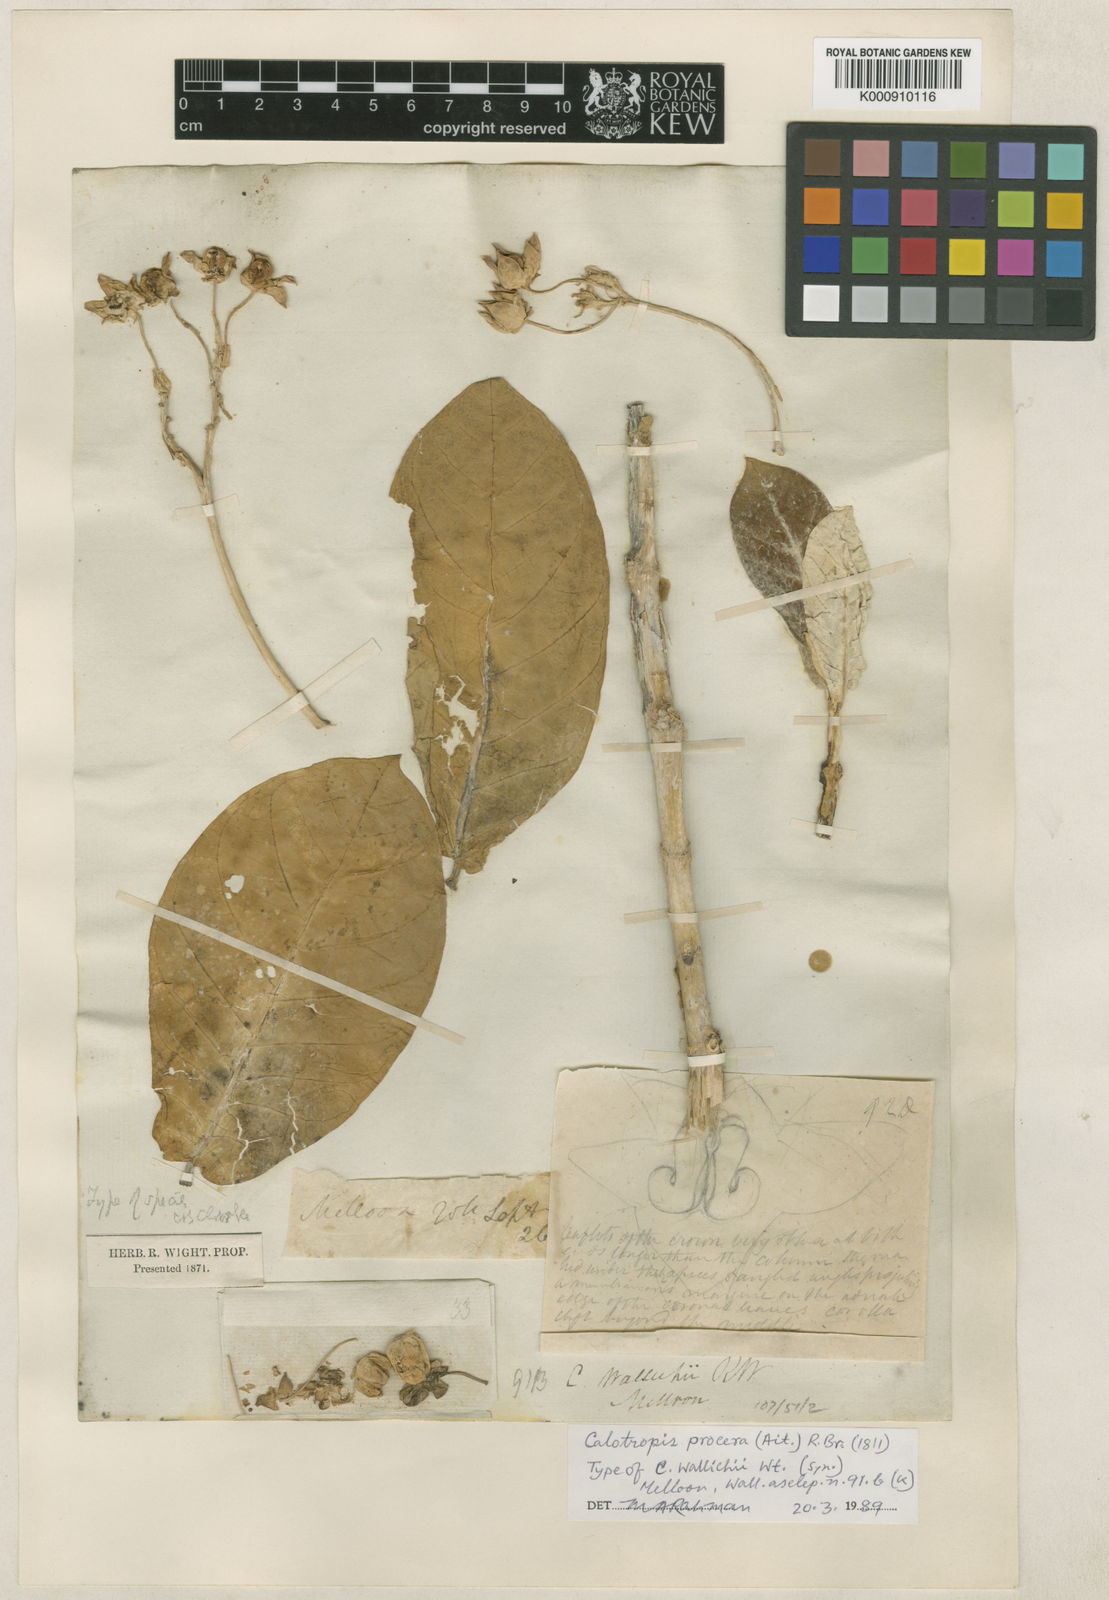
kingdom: Plantae
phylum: Tracheophyta
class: Magnoliopsida
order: Gentianales
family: Apocynaceae
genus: Calotropis
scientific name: Calotropis
